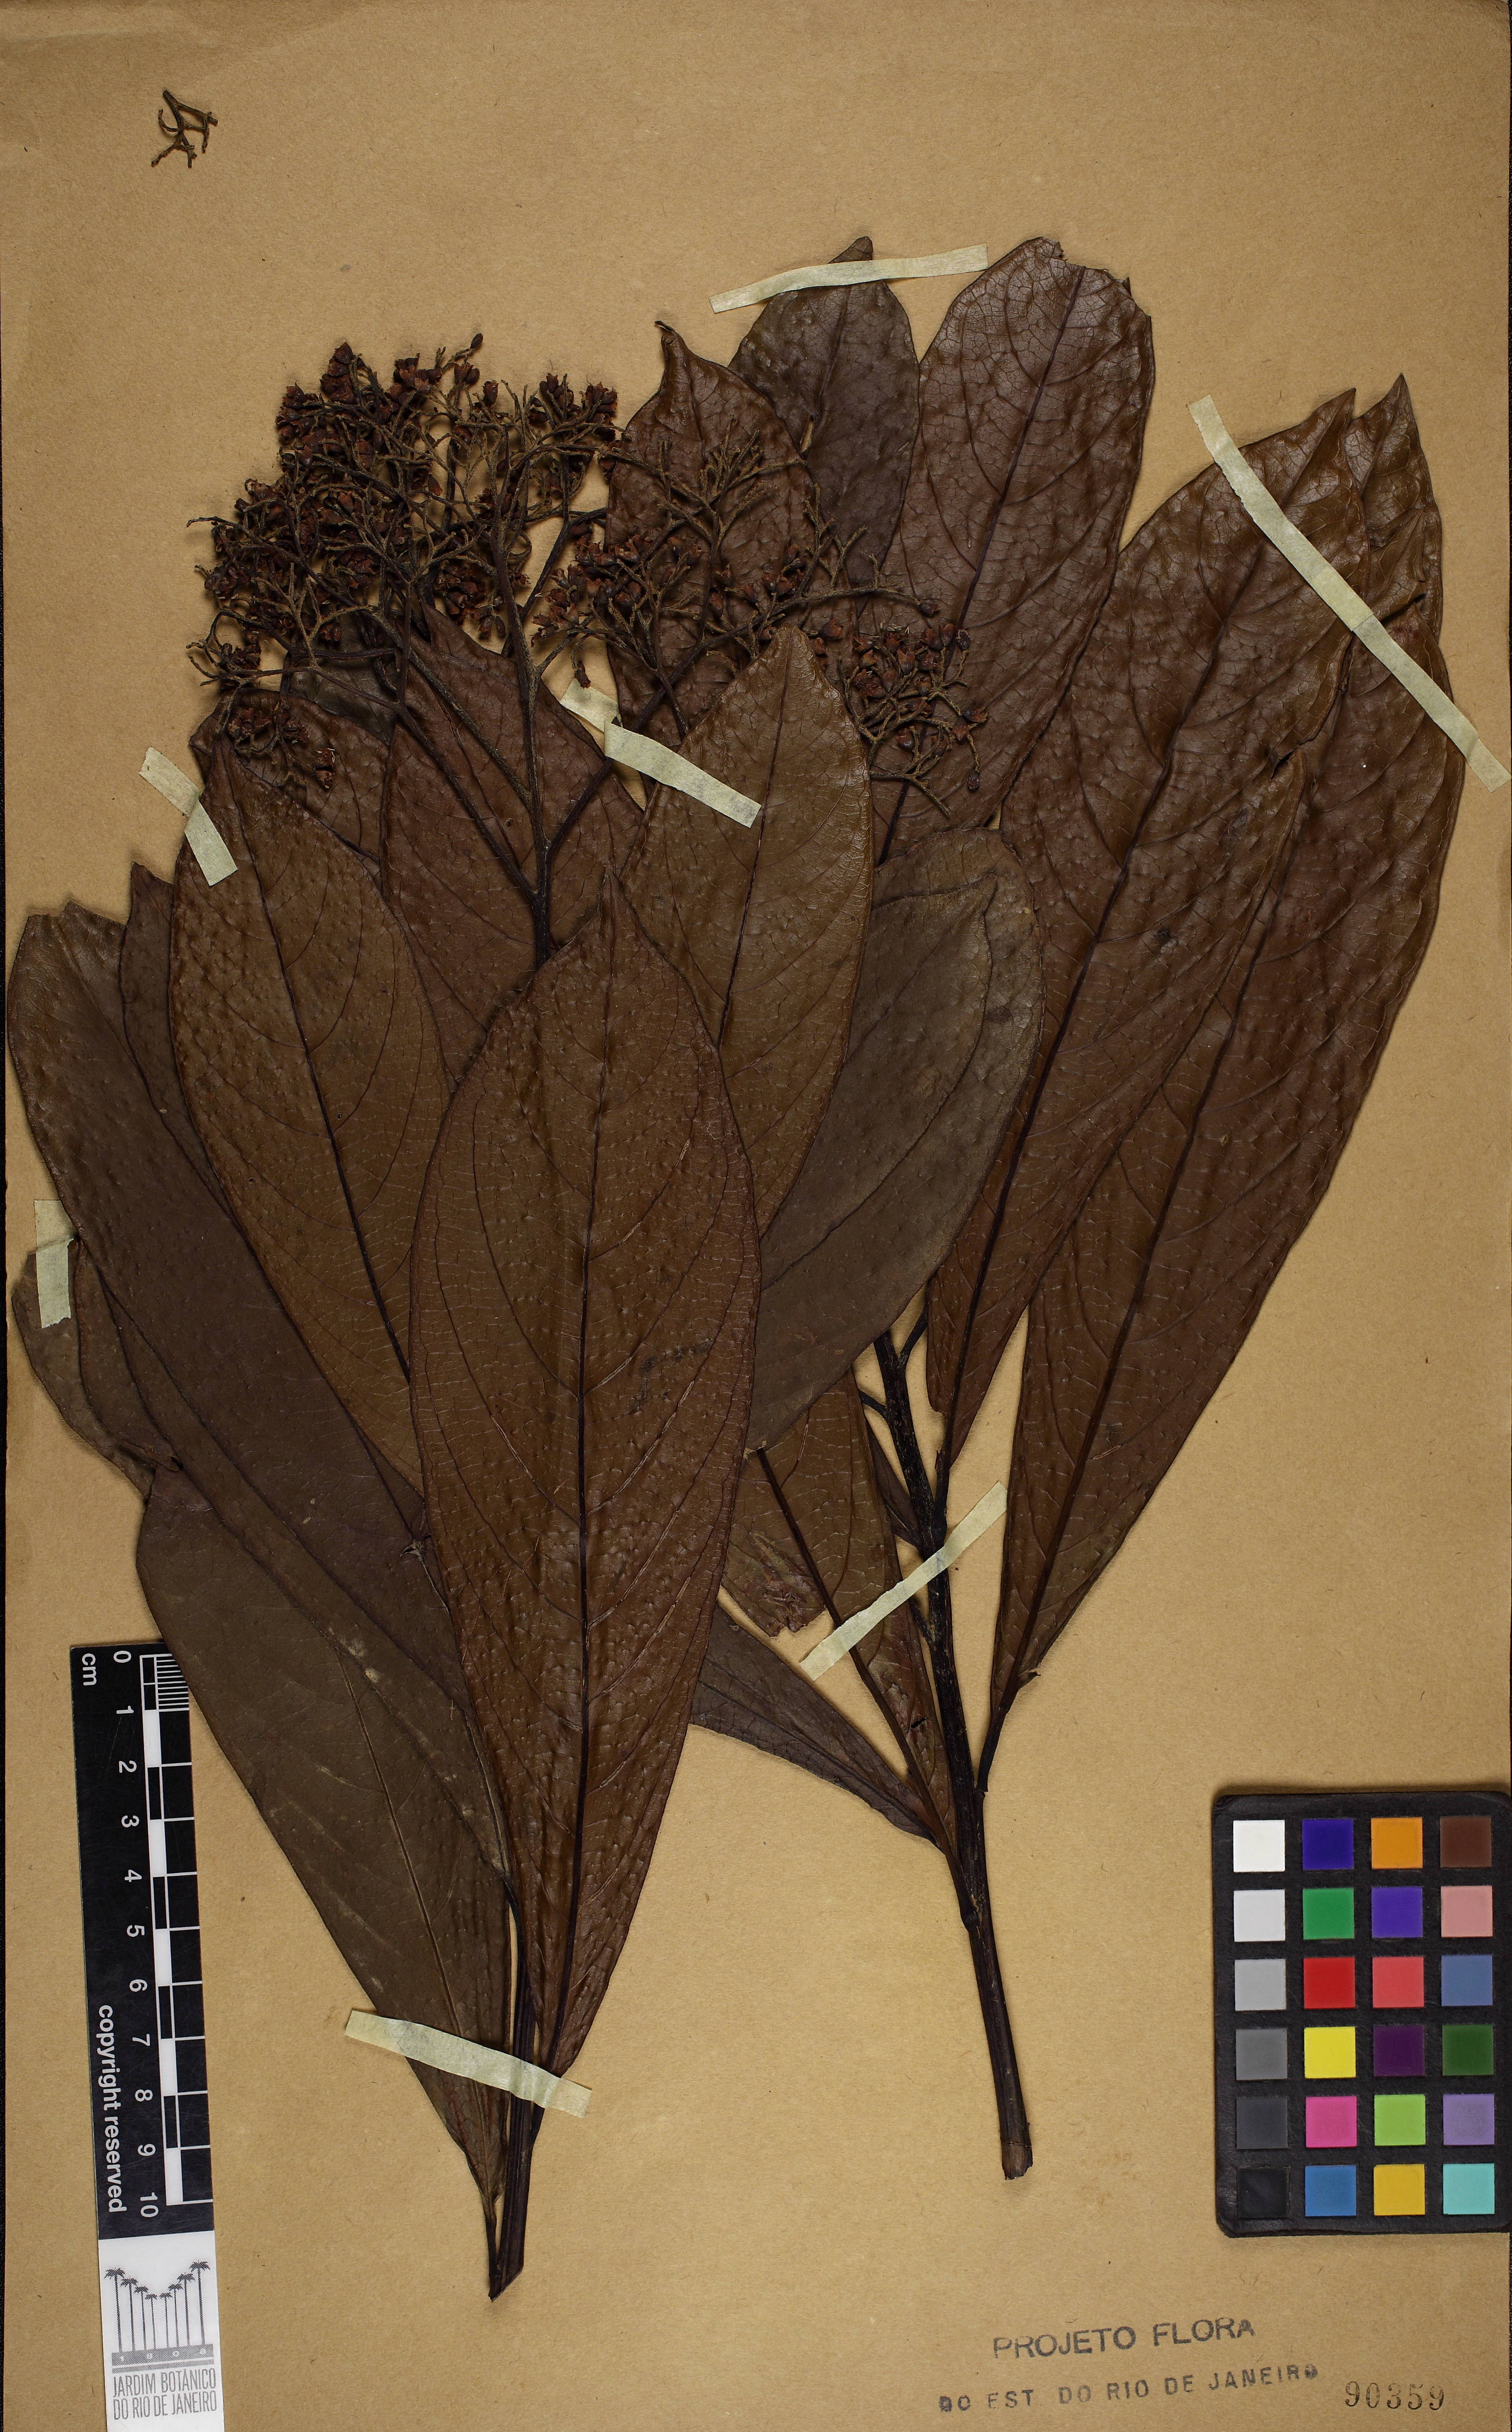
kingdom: Plantae
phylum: Tracheophyta
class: Magnoliopsida
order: Boraginales
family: Cordiaceae
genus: Cordia
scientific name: Cordia magnoliifolia
